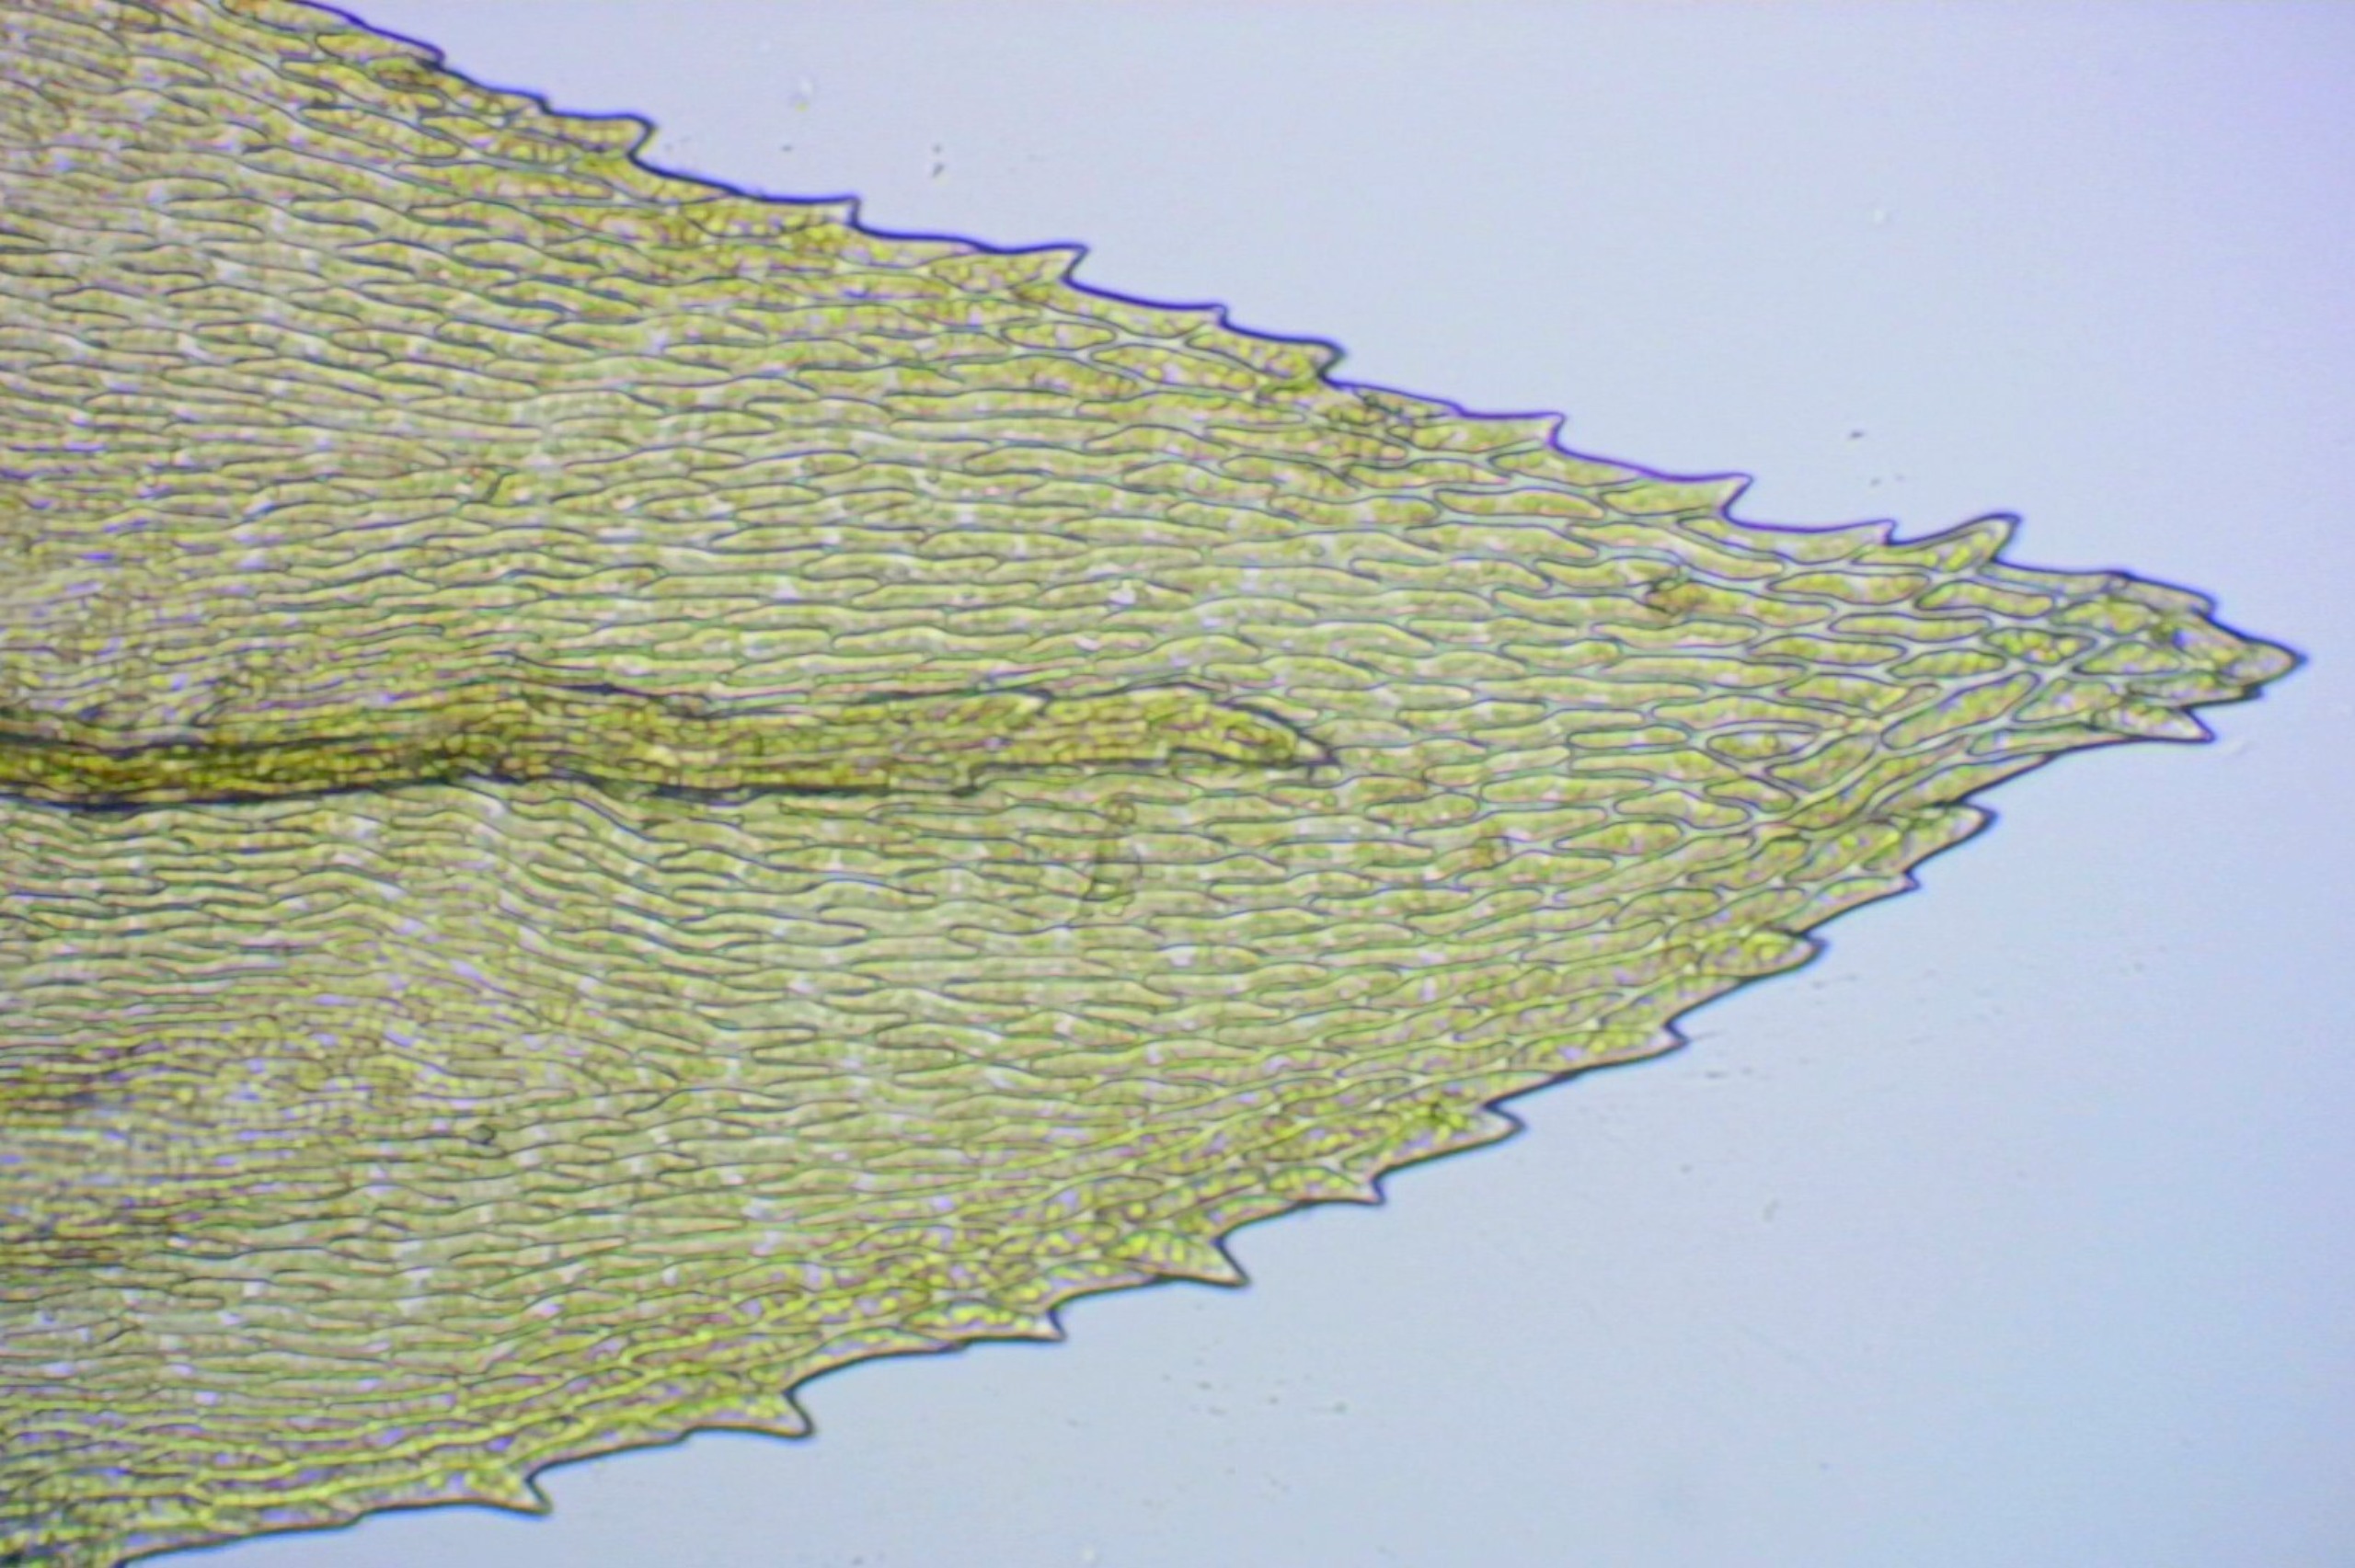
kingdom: Plantae
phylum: Bryophyta
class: Bryopsida
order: Hypnales
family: Brachytheciaceae
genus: Eurhynchium
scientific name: Eurhynchium striatum
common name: Stribet næbmos
